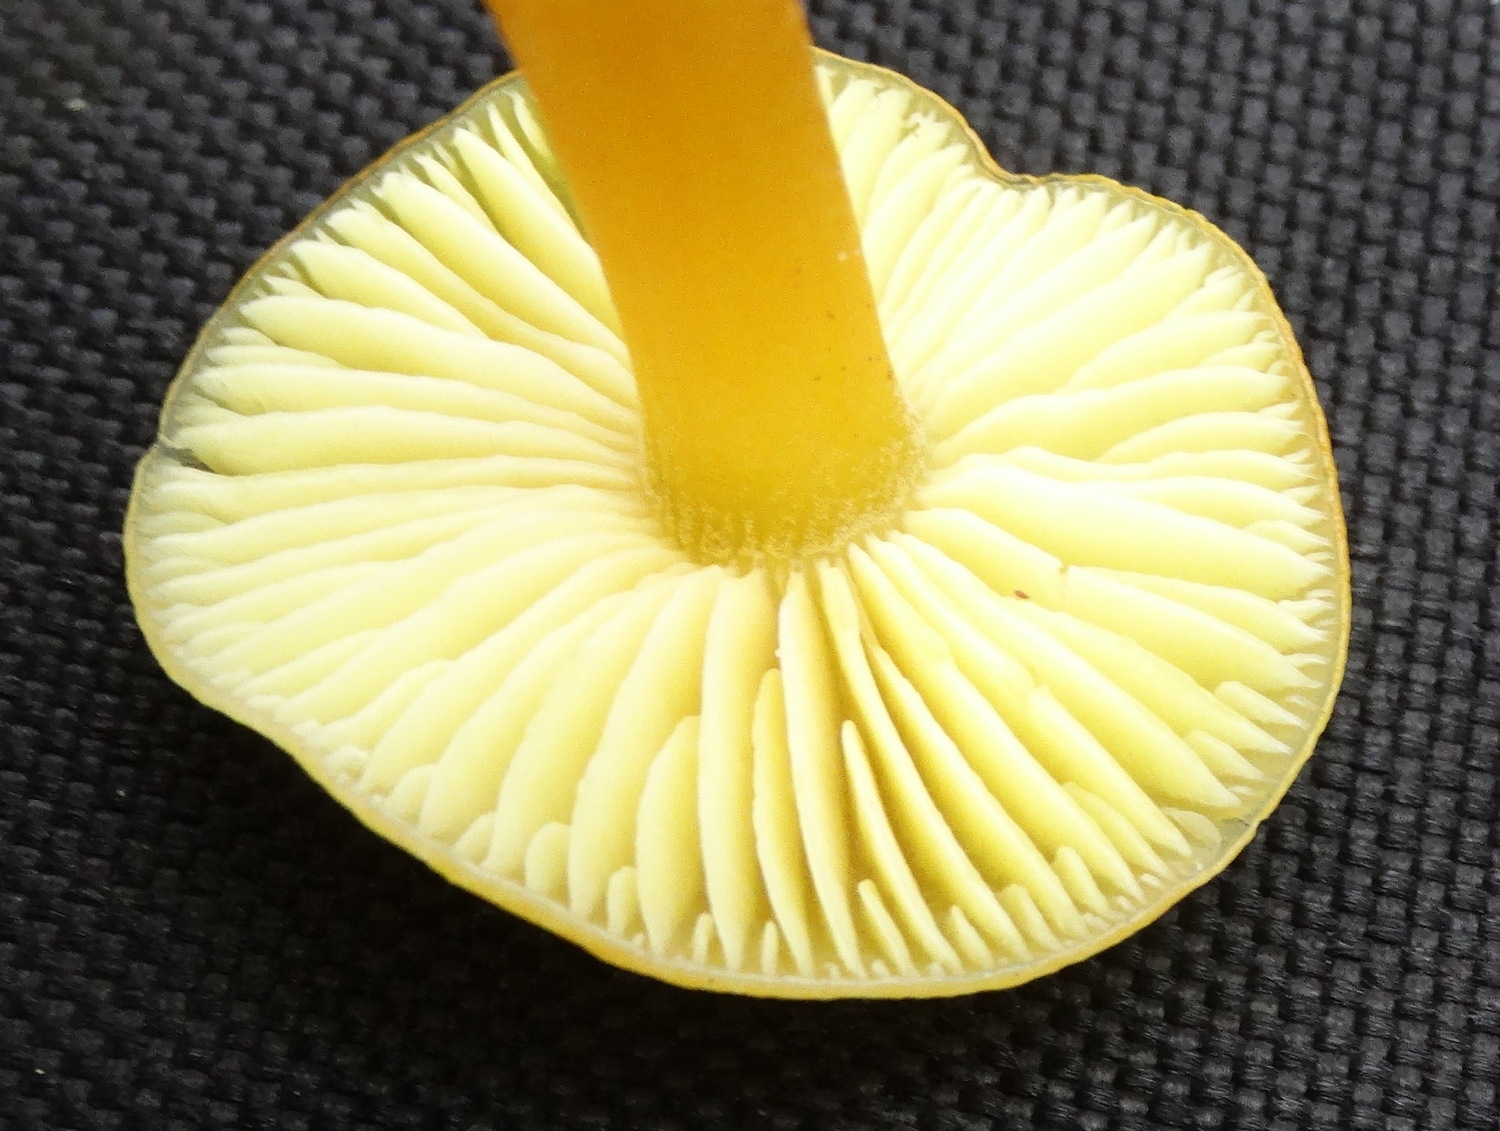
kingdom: Fungi
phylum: Basidiomycota
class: Agaricomycetes
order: Agaricales
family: Hygrophoraceae
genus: Hygrocybe
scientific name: Hygrocybe chlorophana
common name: gul vokshat
